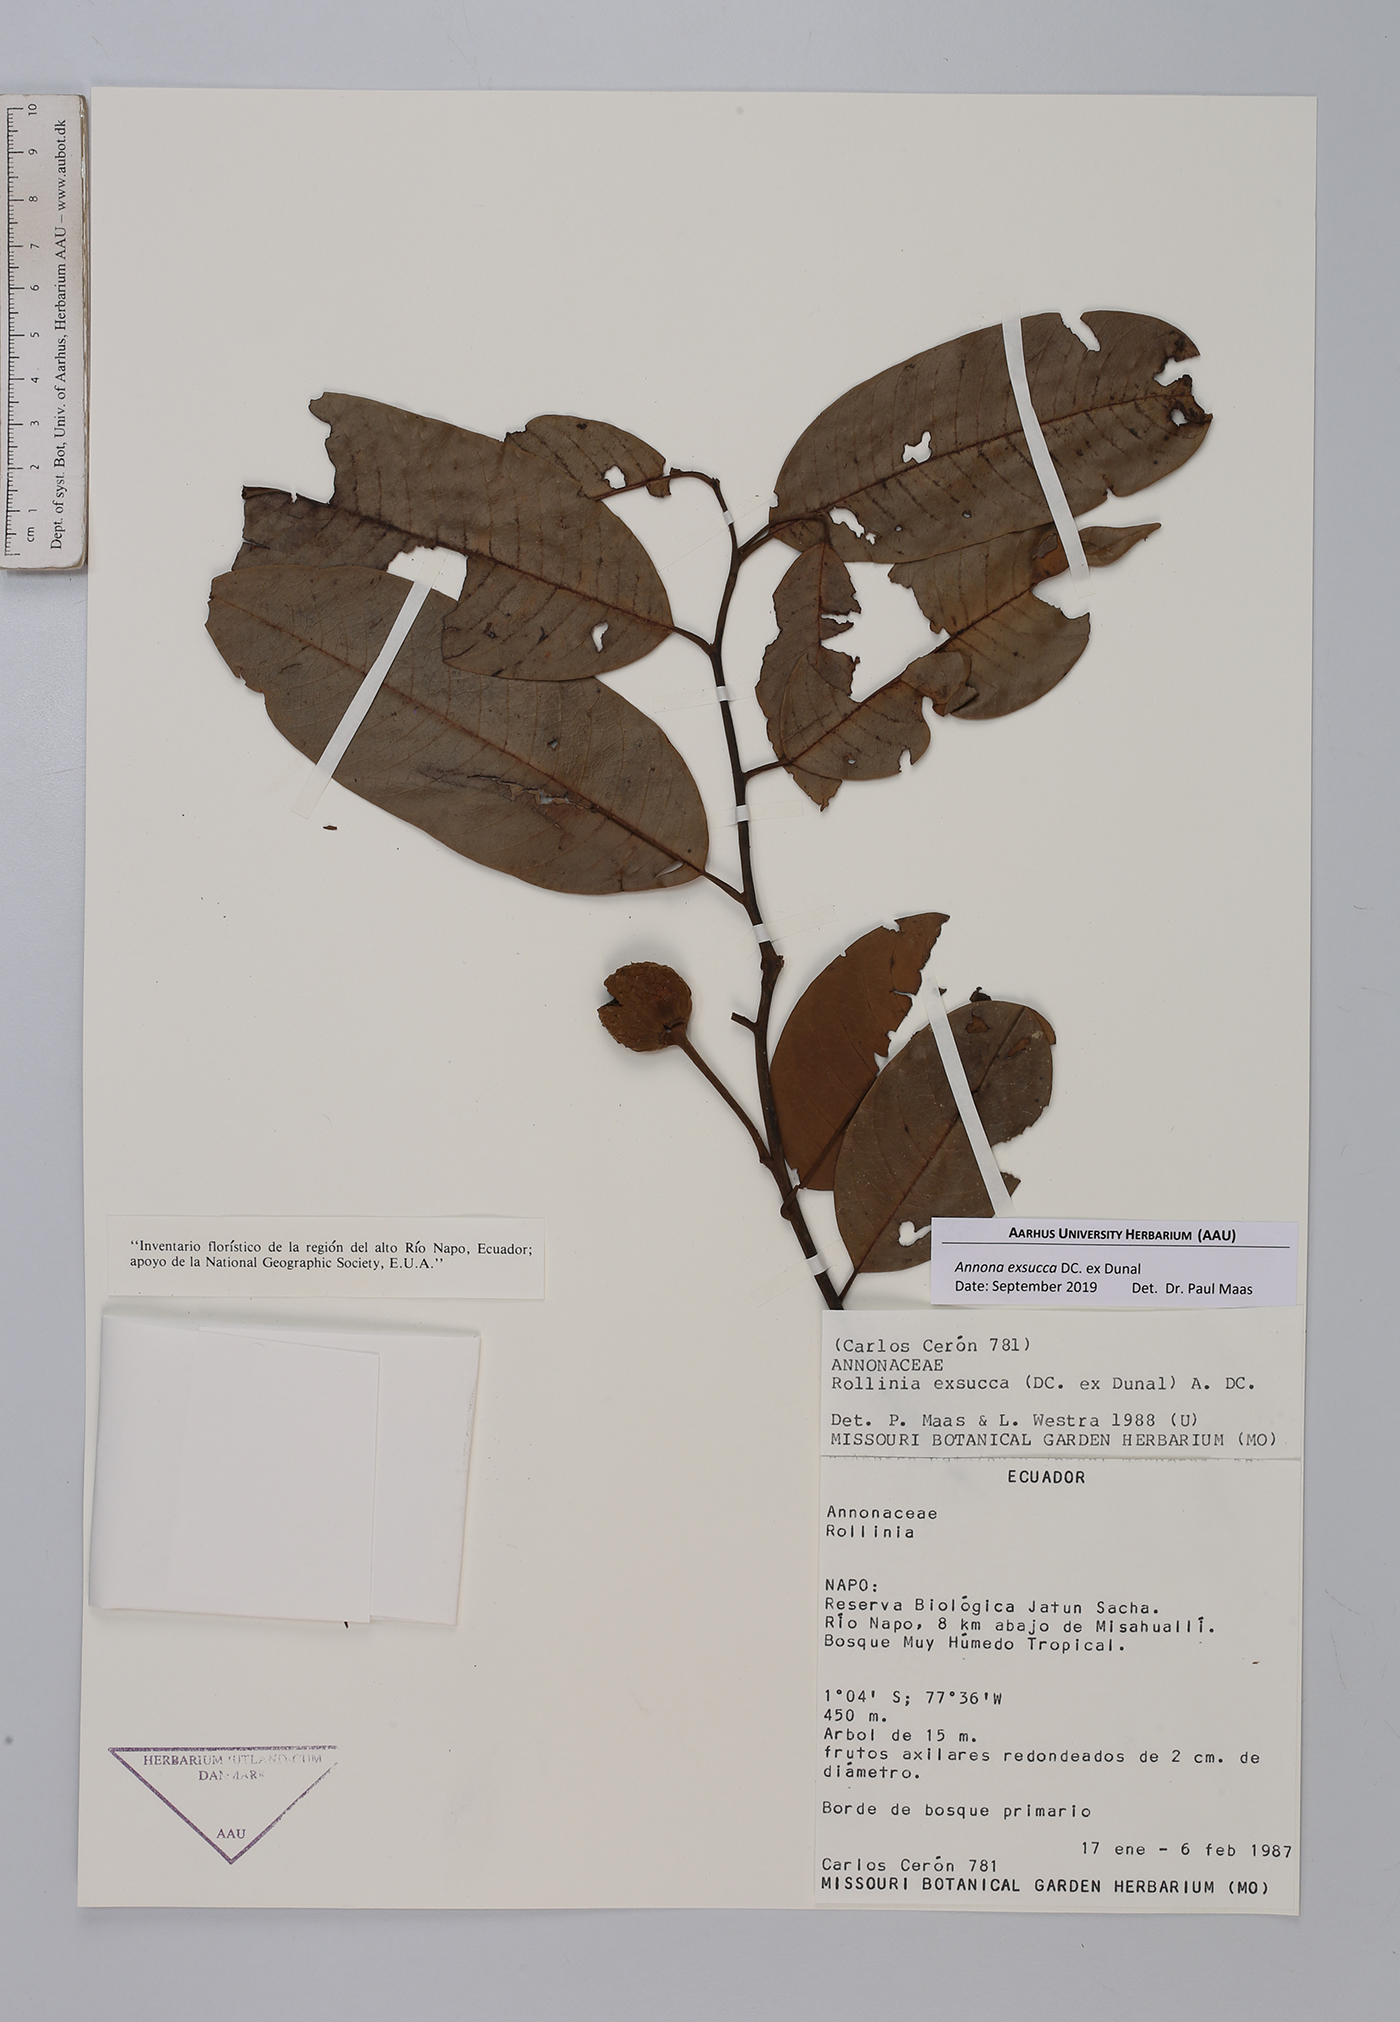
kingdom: Plantae
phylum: Tracheophyta
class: Magnoliopsida
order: Magnoliales
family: Annonaceae
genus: Annona
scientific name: Annona exsucca
